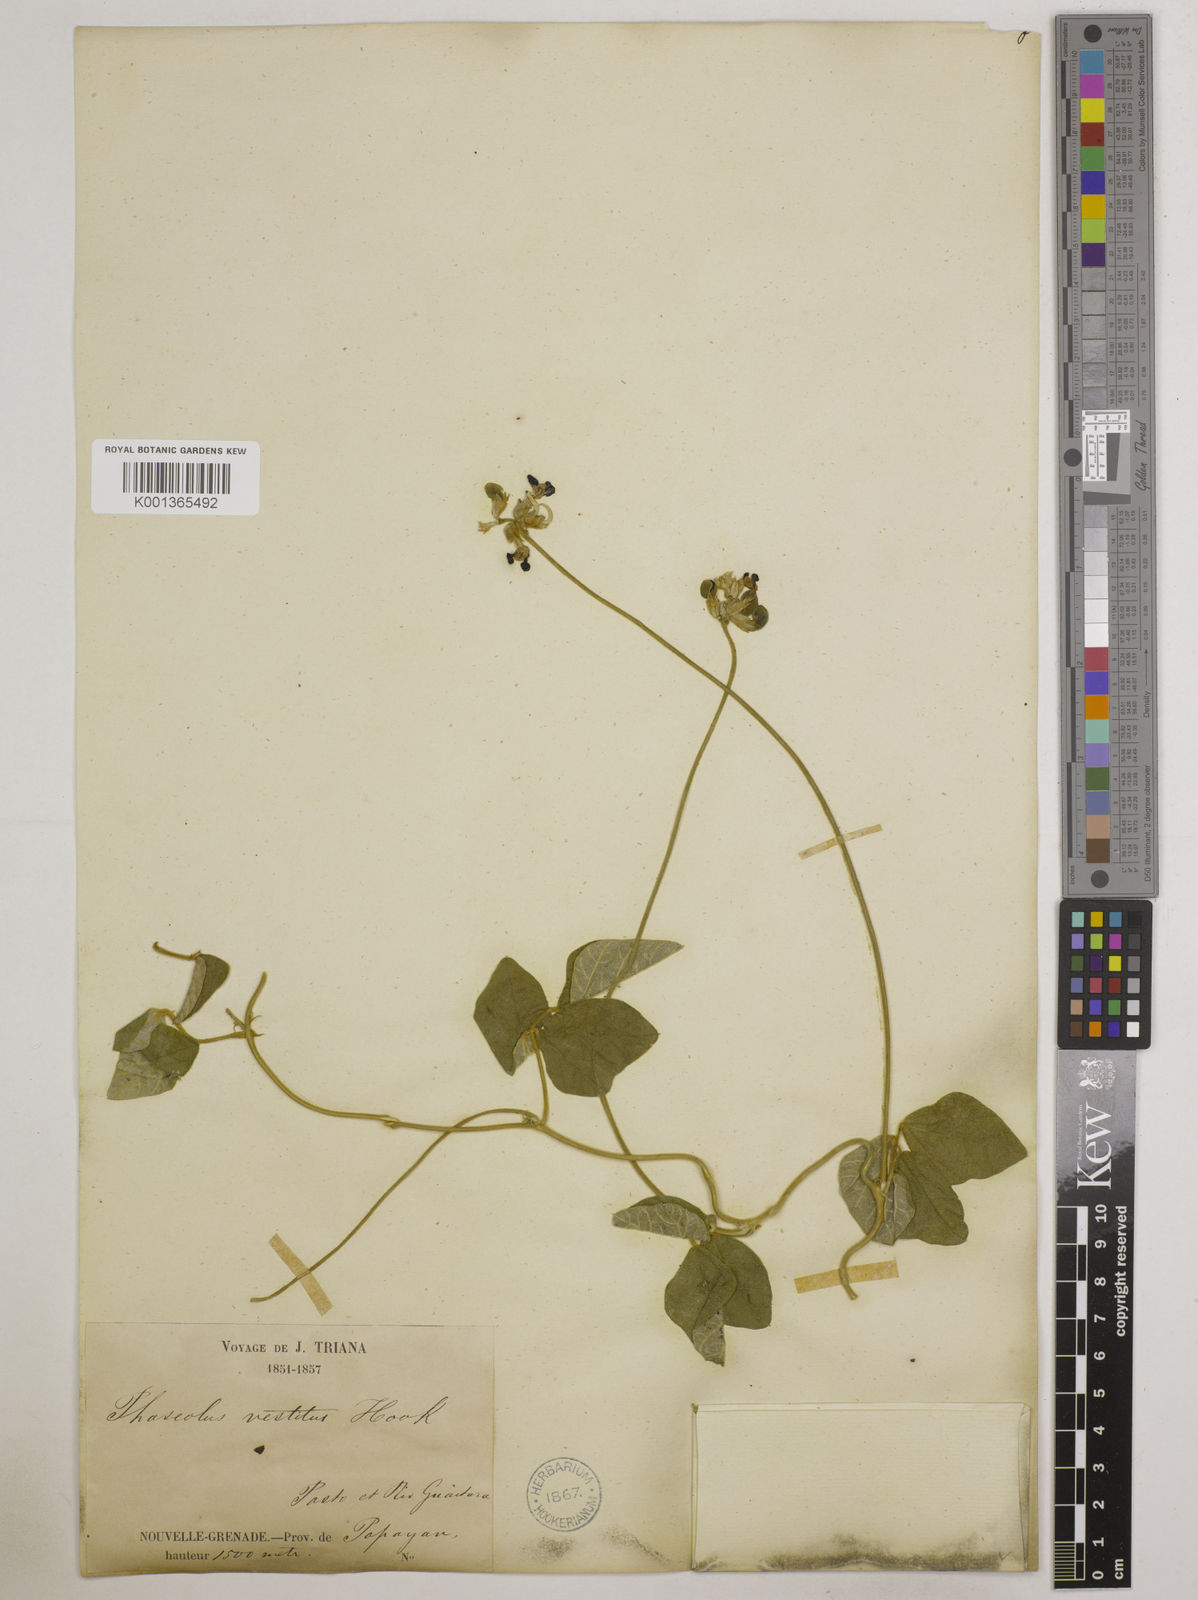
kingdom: Plantae
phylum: Tracheophyta
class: Magnoliopsida
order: Fabales
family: Fabaceae
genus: Macroptilium
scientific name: Macroptilium atropurpureum
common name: Purple bushbean
